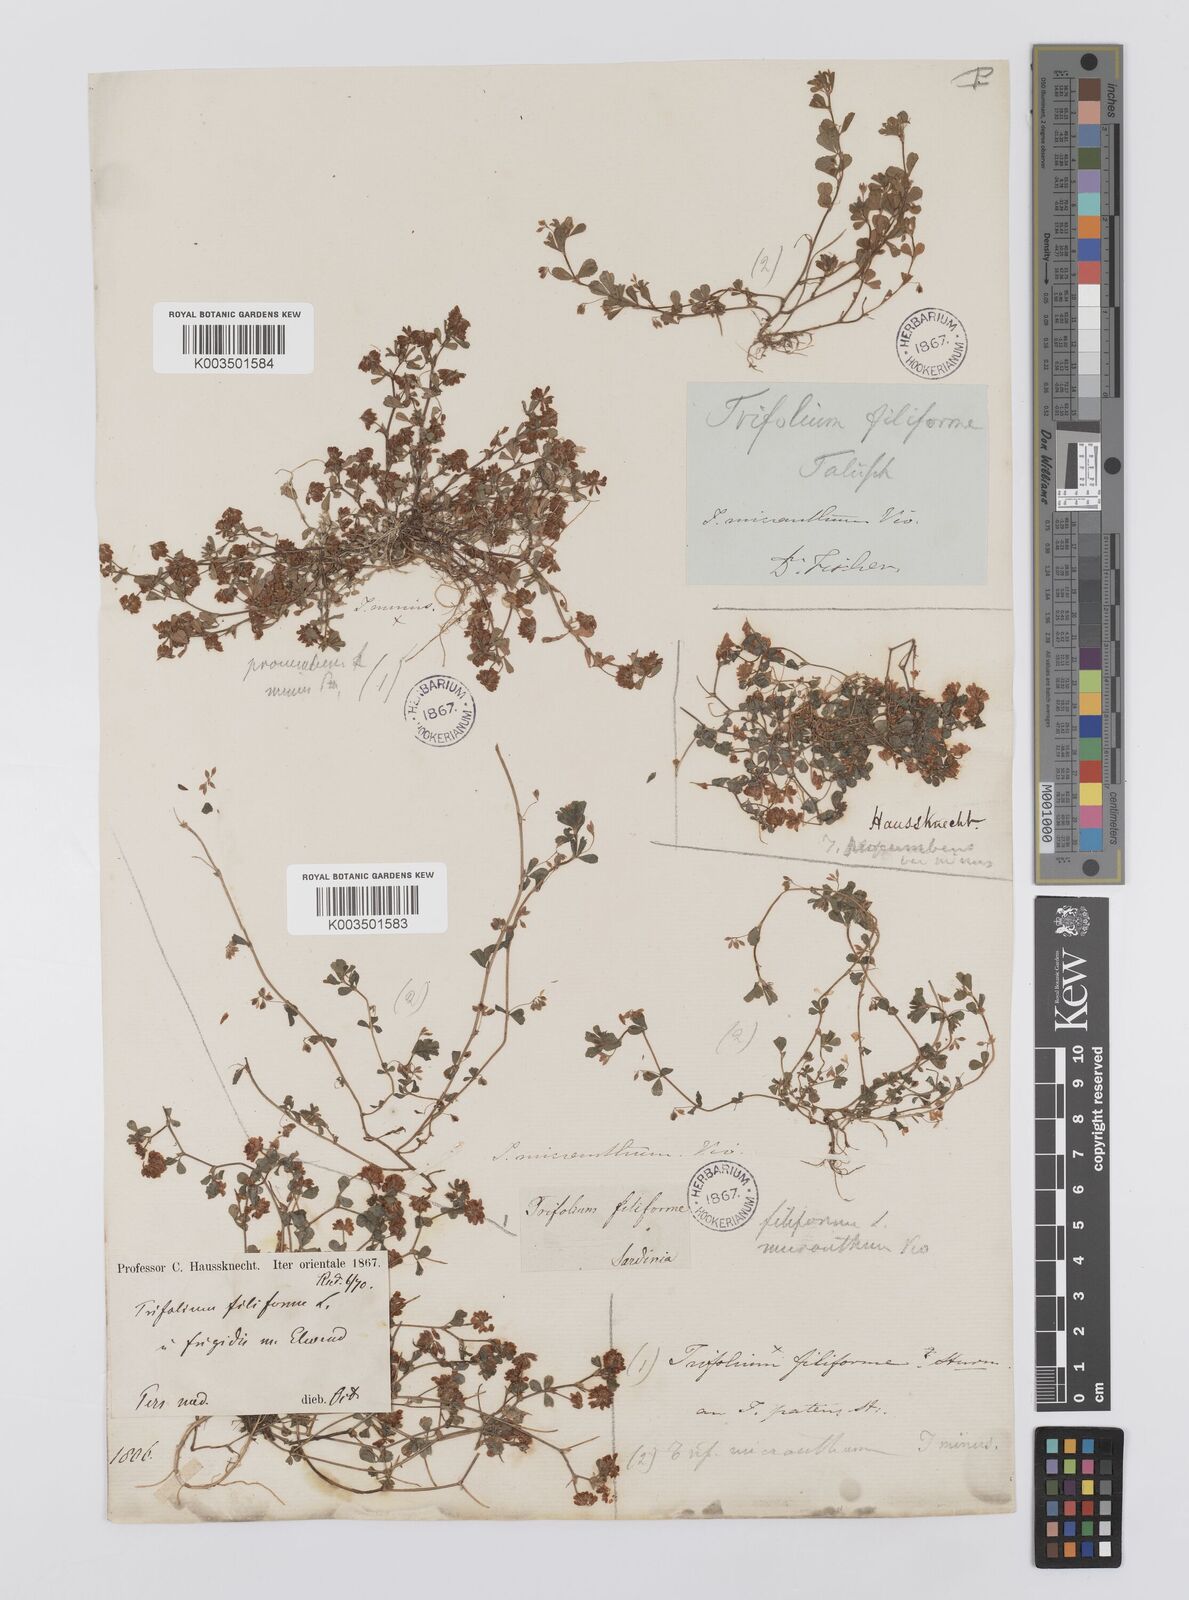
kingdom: Plantae
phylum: Tracheophyta
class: Magnoliopsida
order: Fabales
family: Fabaceae
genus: Trifolium
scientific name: Trifolium micranthum
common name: Slender trefoil
